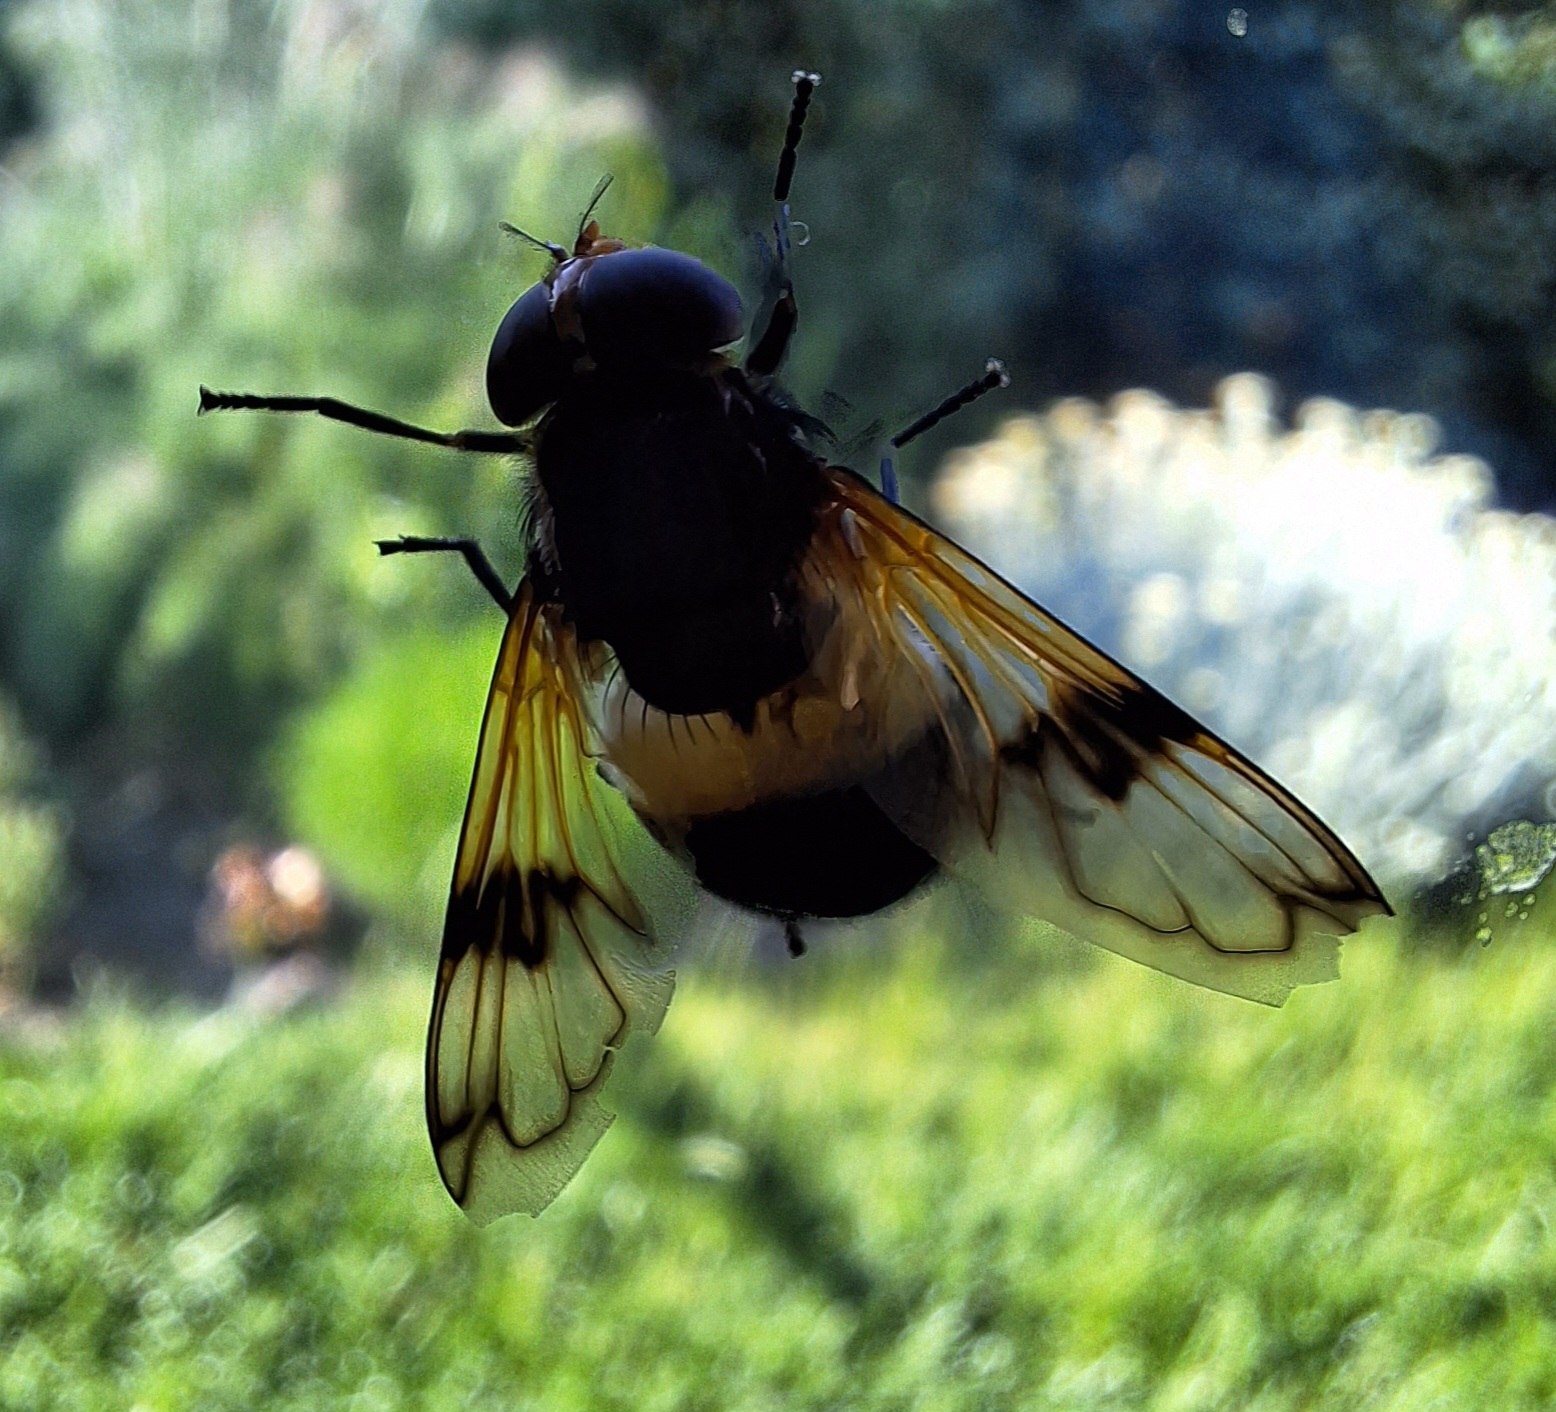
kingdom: Animalia
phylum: Arthropoda
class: Insecta
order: Diptera
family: Syrphidae
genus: Volucella
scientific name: Volucella pellucens
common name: Hvidbåndet humlesvirreflue
